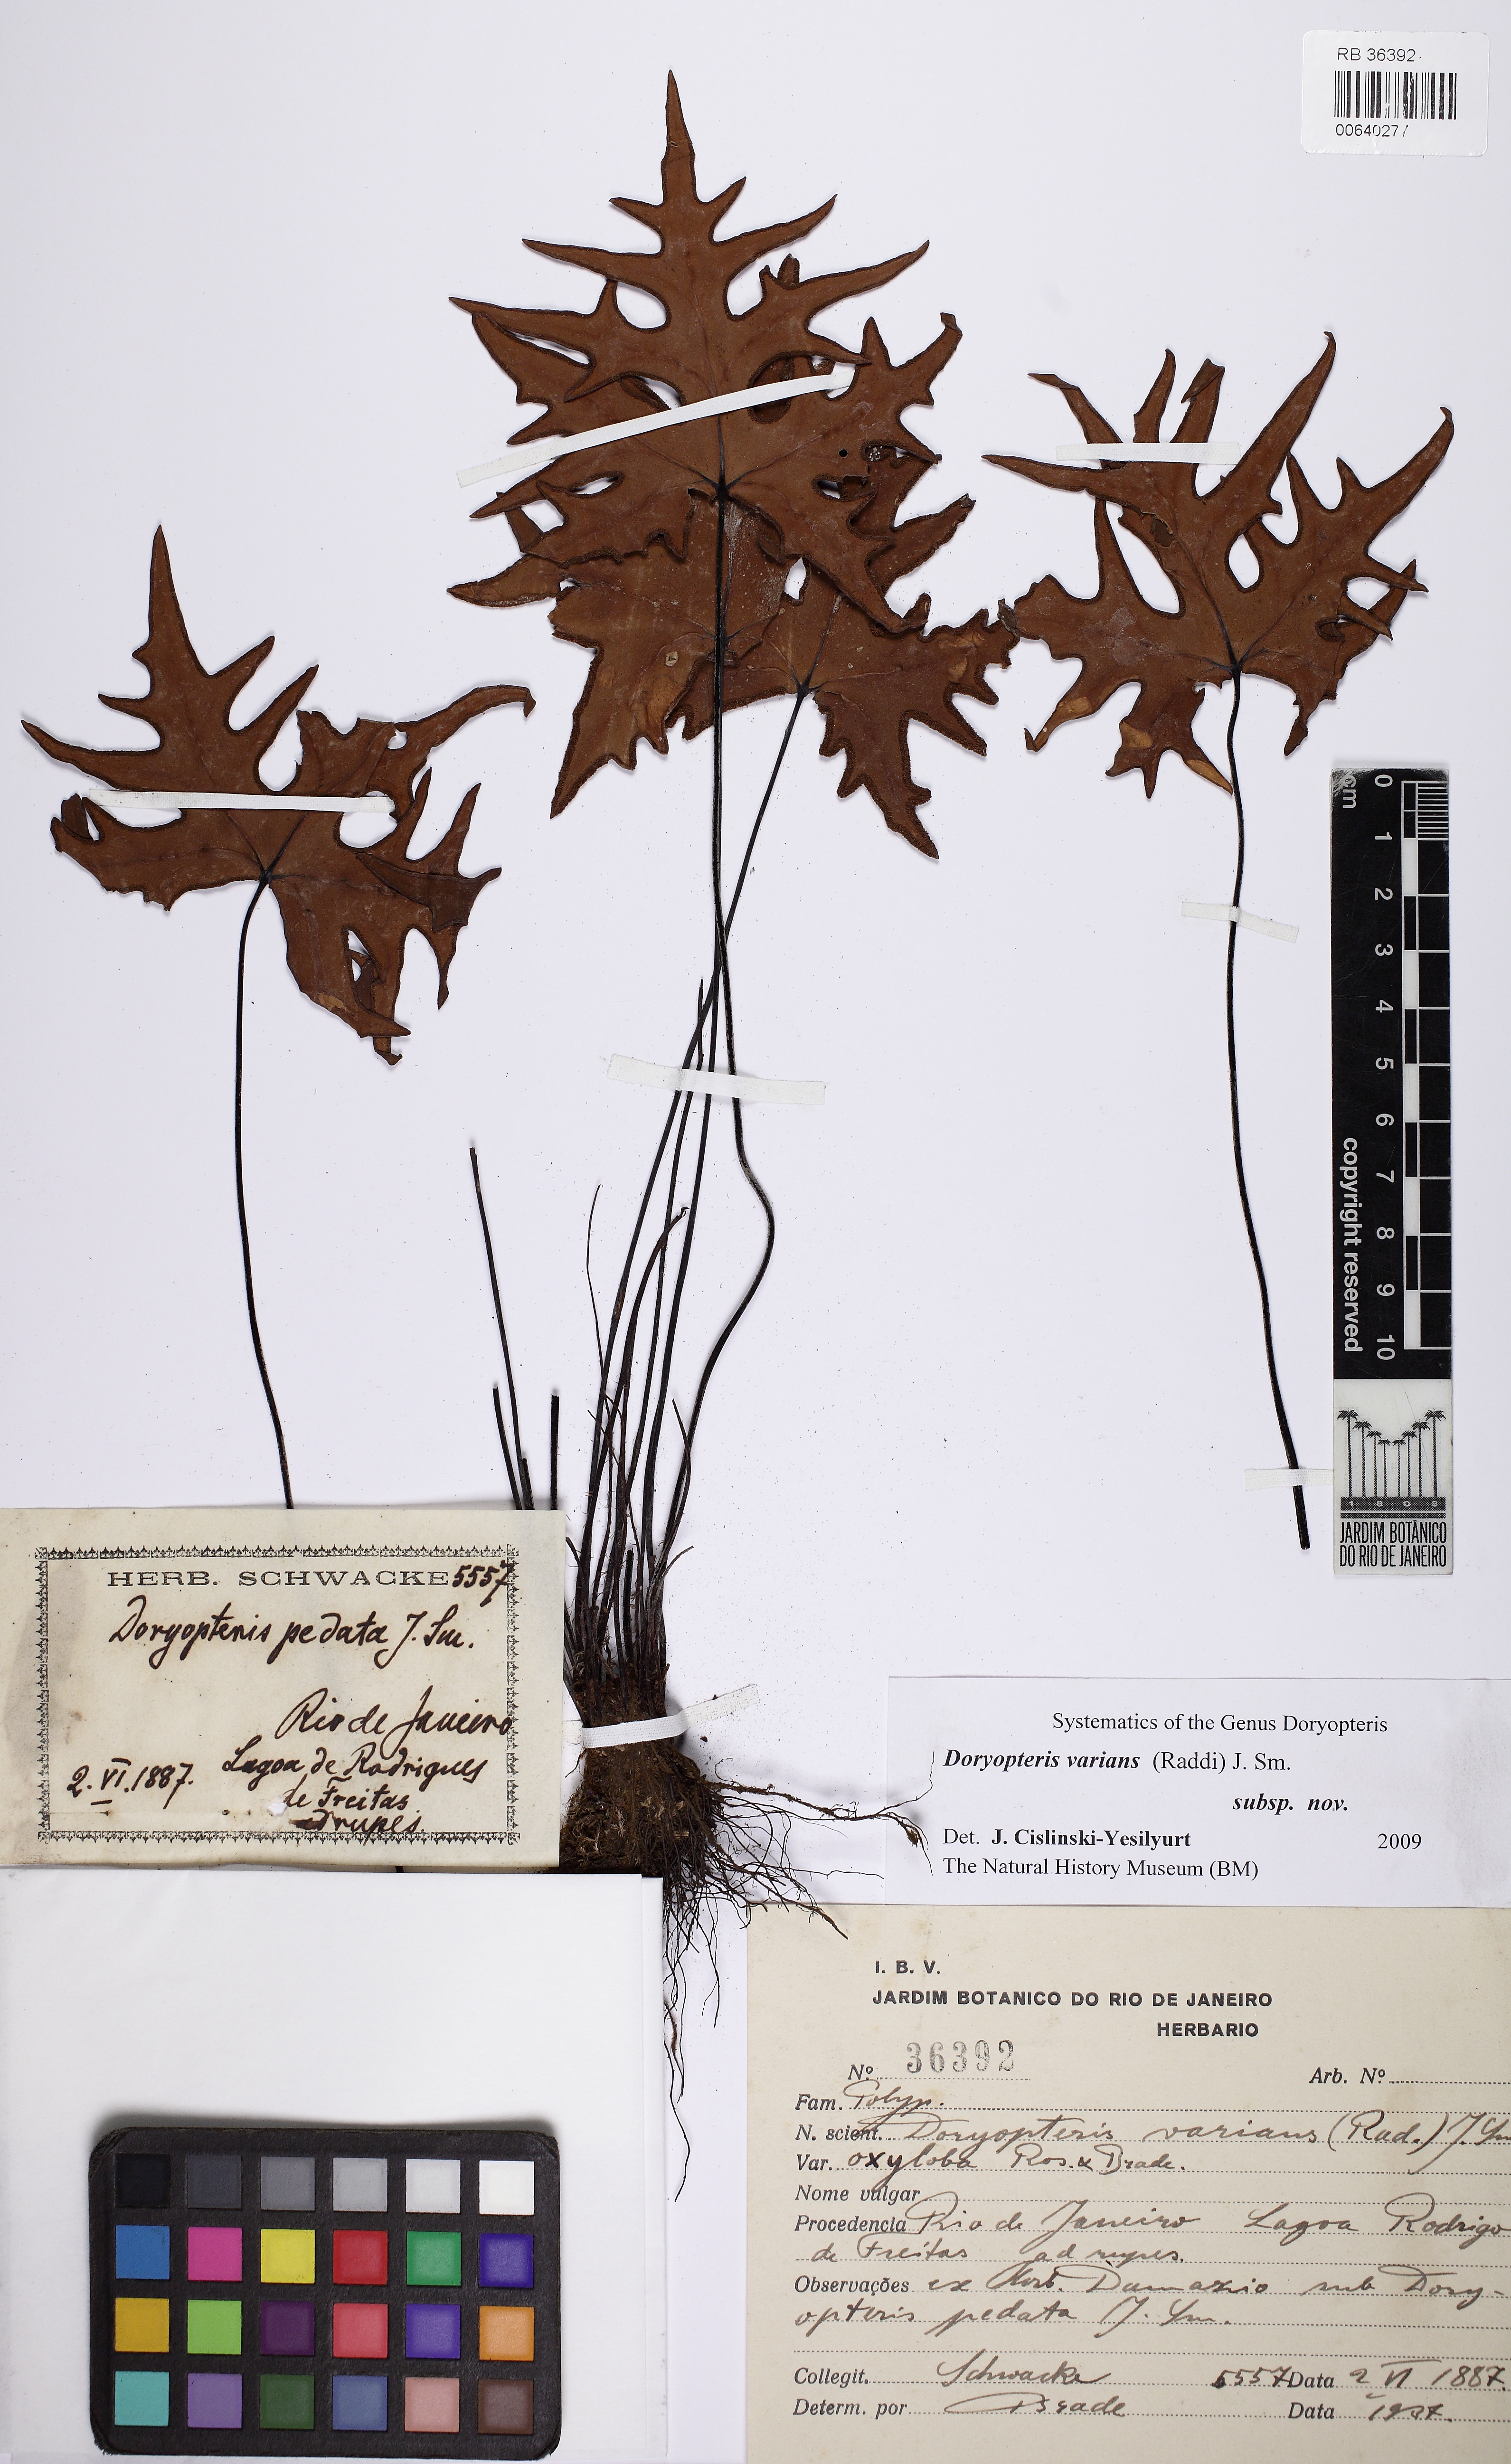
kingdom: Plantae
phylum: Tracheophyta
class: Polypodiopsida
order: Polypodiales
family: Pteridaceae
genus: Doryopteris
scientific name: Doryopteris varians
